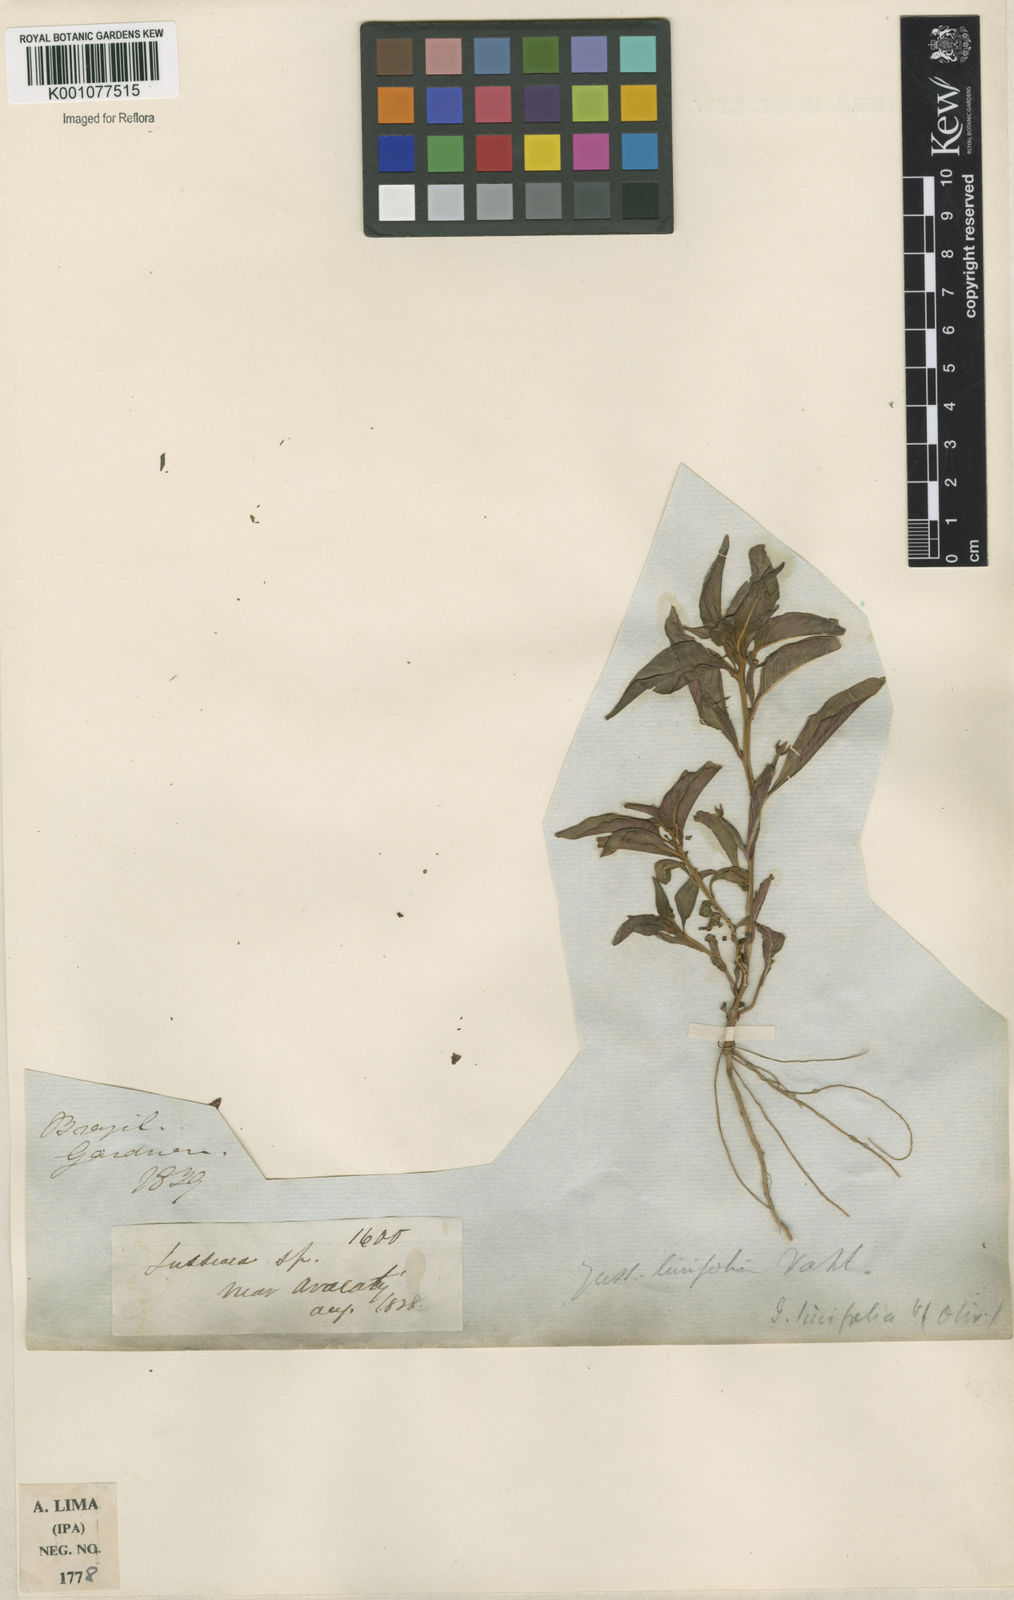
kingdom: Plantae
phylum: Tracheophyta
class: Magnoliopsida
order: Myrtales
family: Onagraceae
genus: Ludwigia
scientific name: Ludwigia hyssopifolia
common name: Linear leaf water primrose
